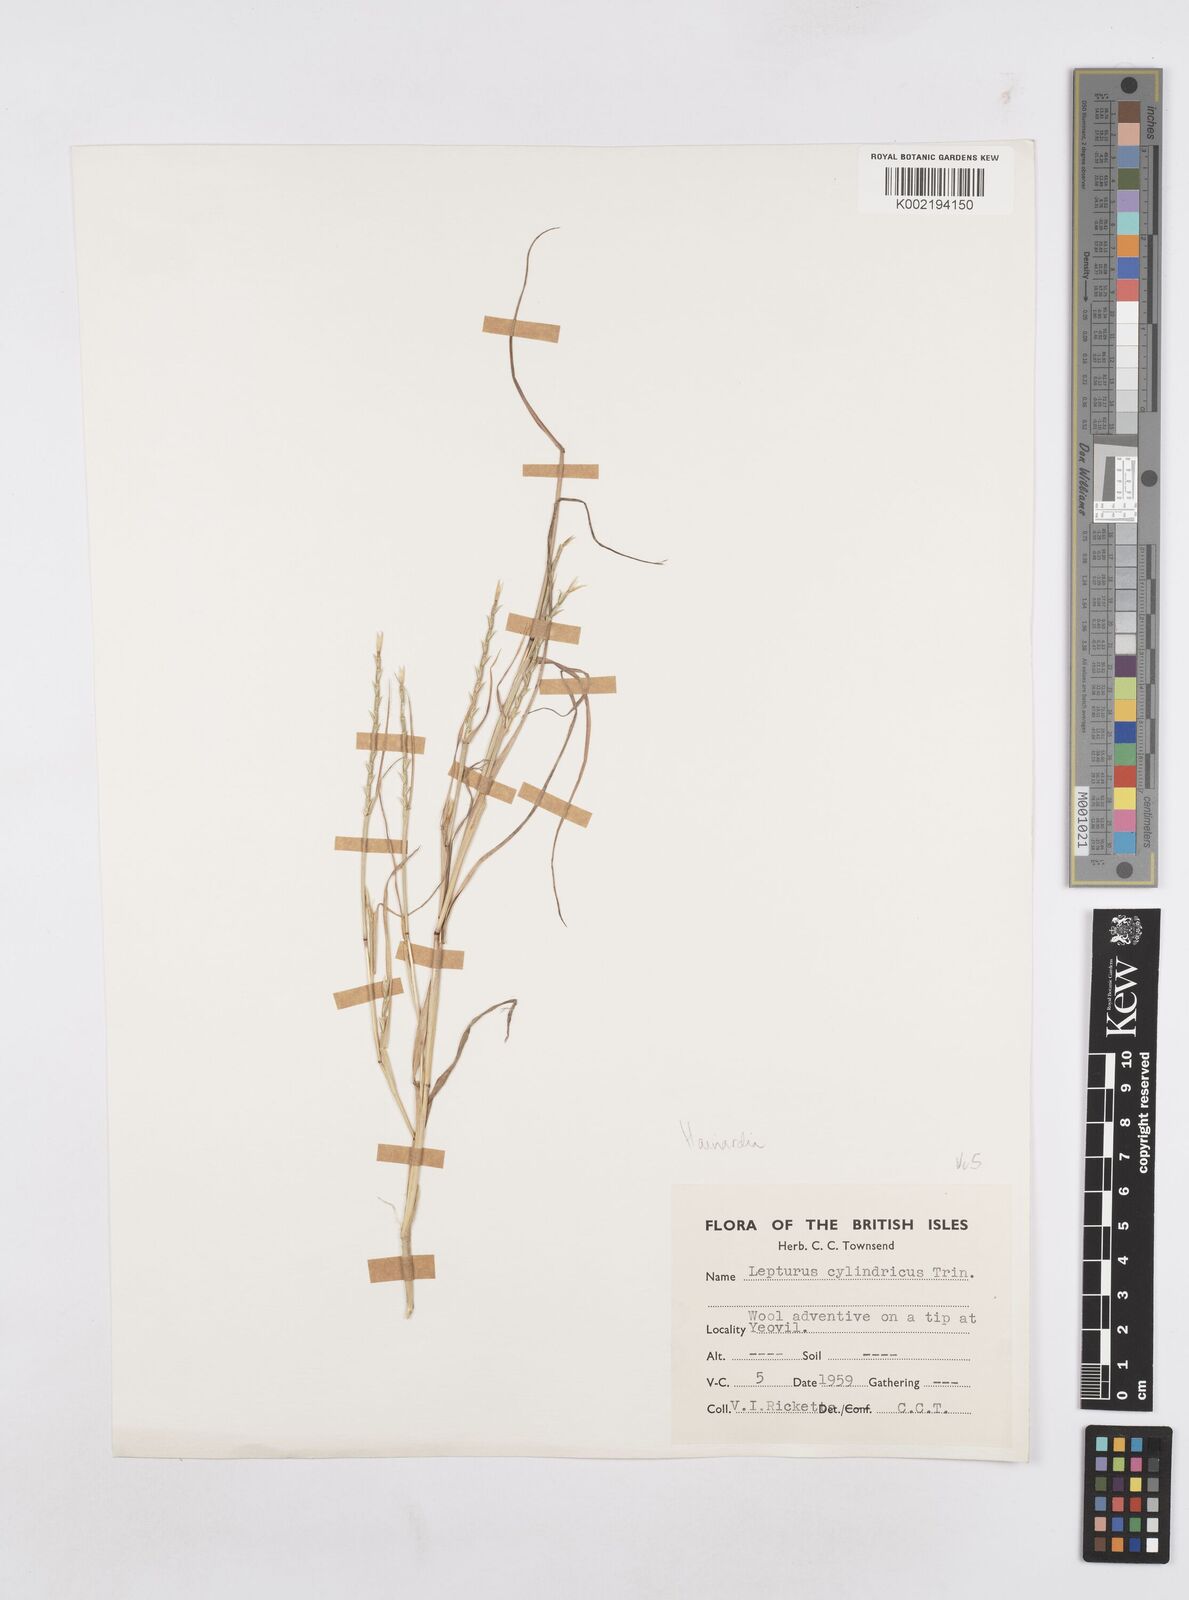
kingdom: Plantae
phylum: Tracheophyta
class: Liliopsida
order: Poales
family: Poaceae
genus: Parapholis
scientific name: Parapholis cylindrica
